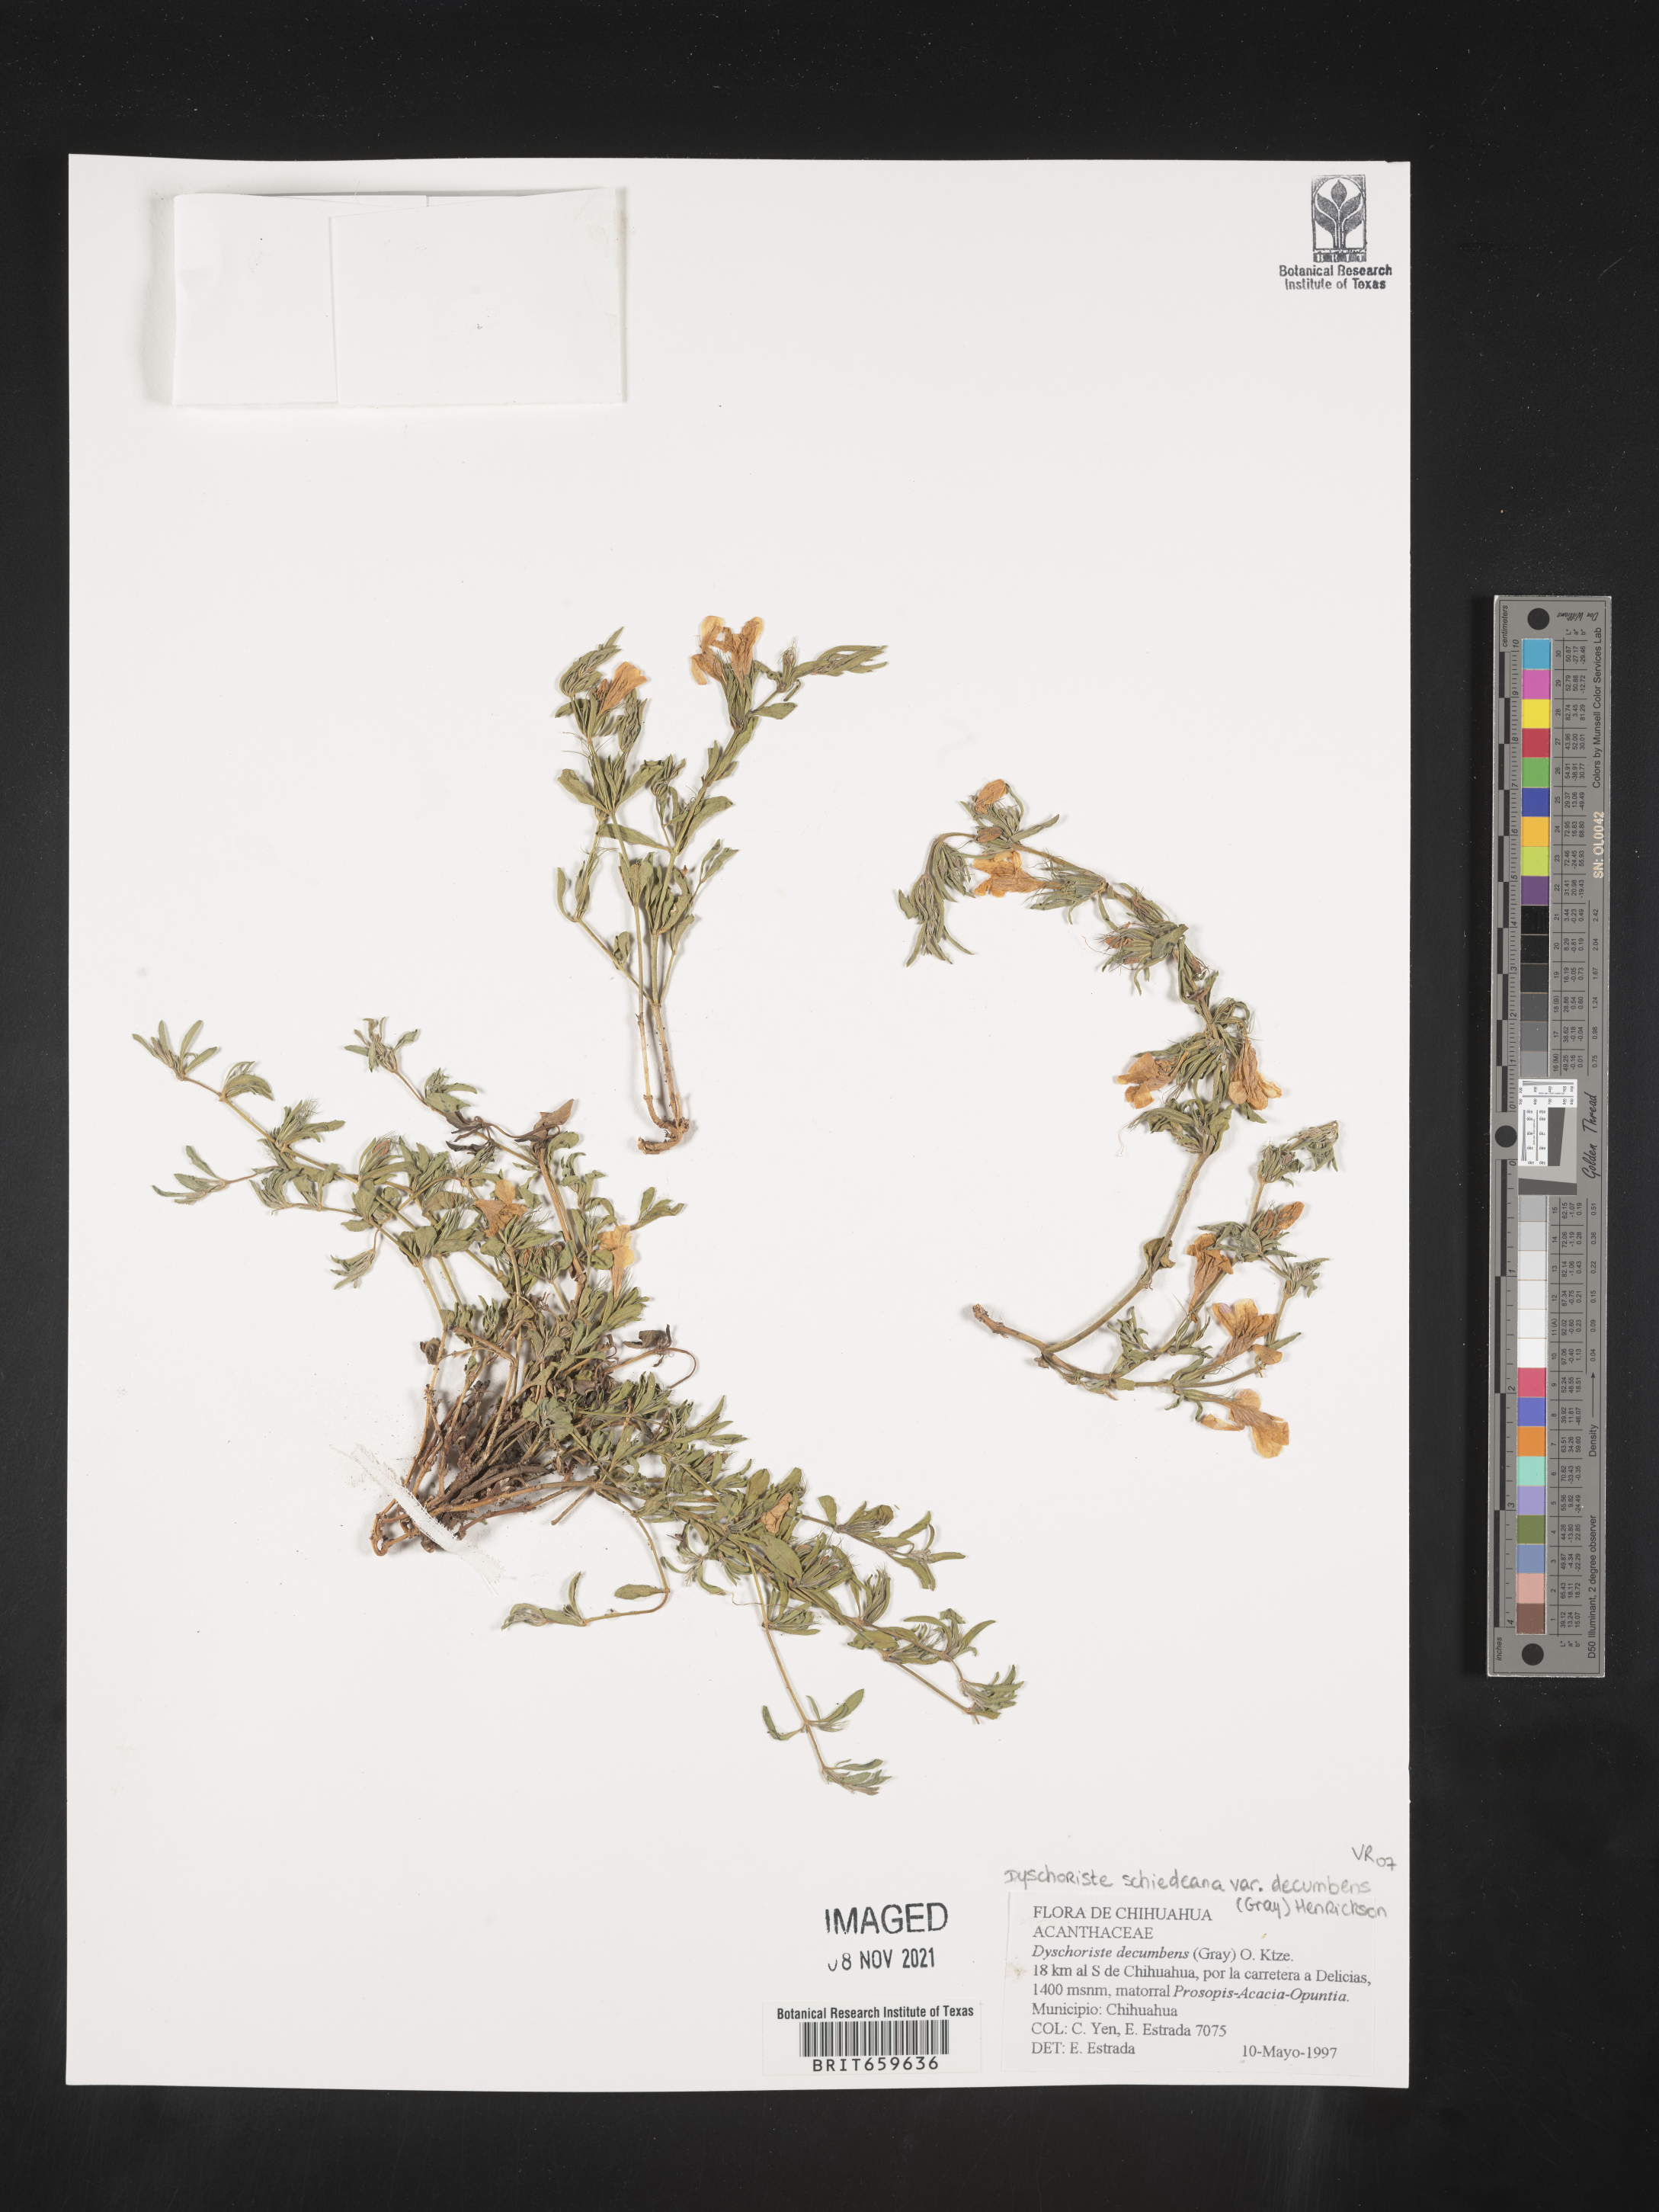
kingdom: Plantae
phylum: Tracheophyta
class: Magnoliopsida
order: Lamiales
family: Acanthaceae
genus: Dyschoriste
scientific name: Dyschoriste
